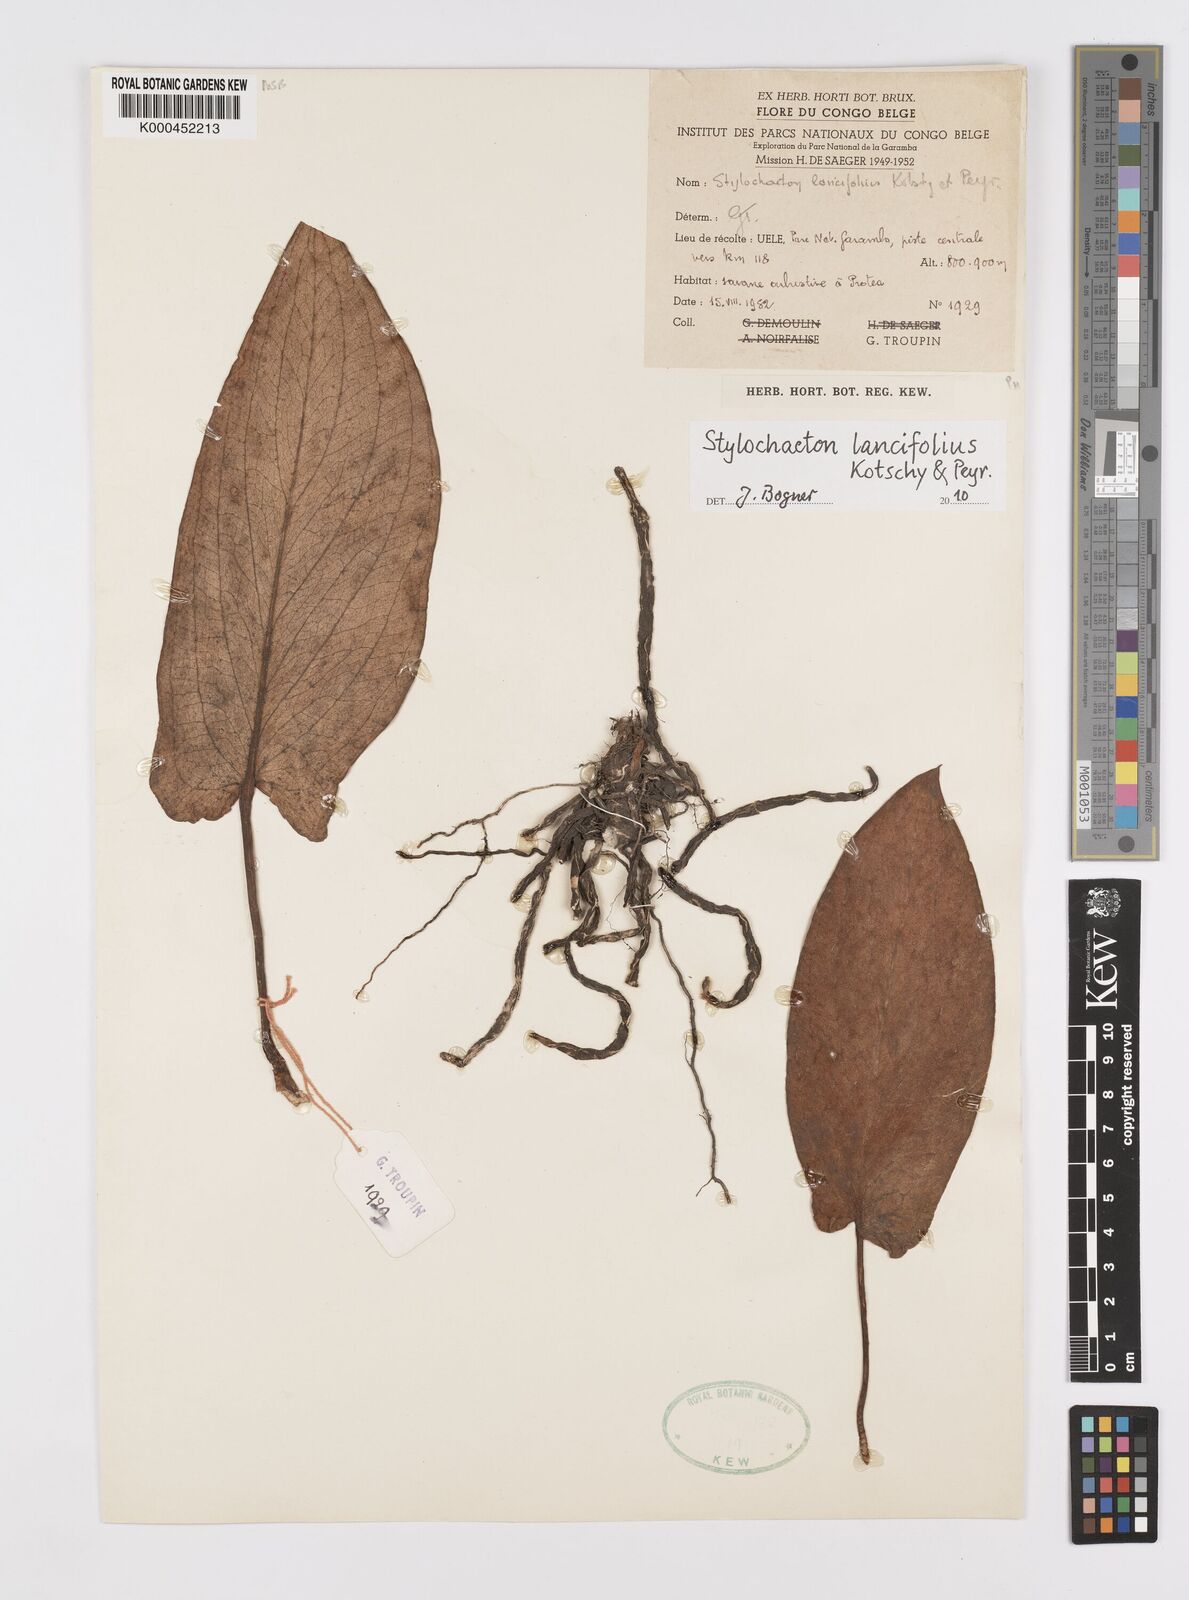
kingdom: Plantae
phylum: Tracheophyta
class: Liliopsida
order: Alismatales
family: Araceae
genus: Stylochaeton
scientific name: Stylochaeton lancifolium
